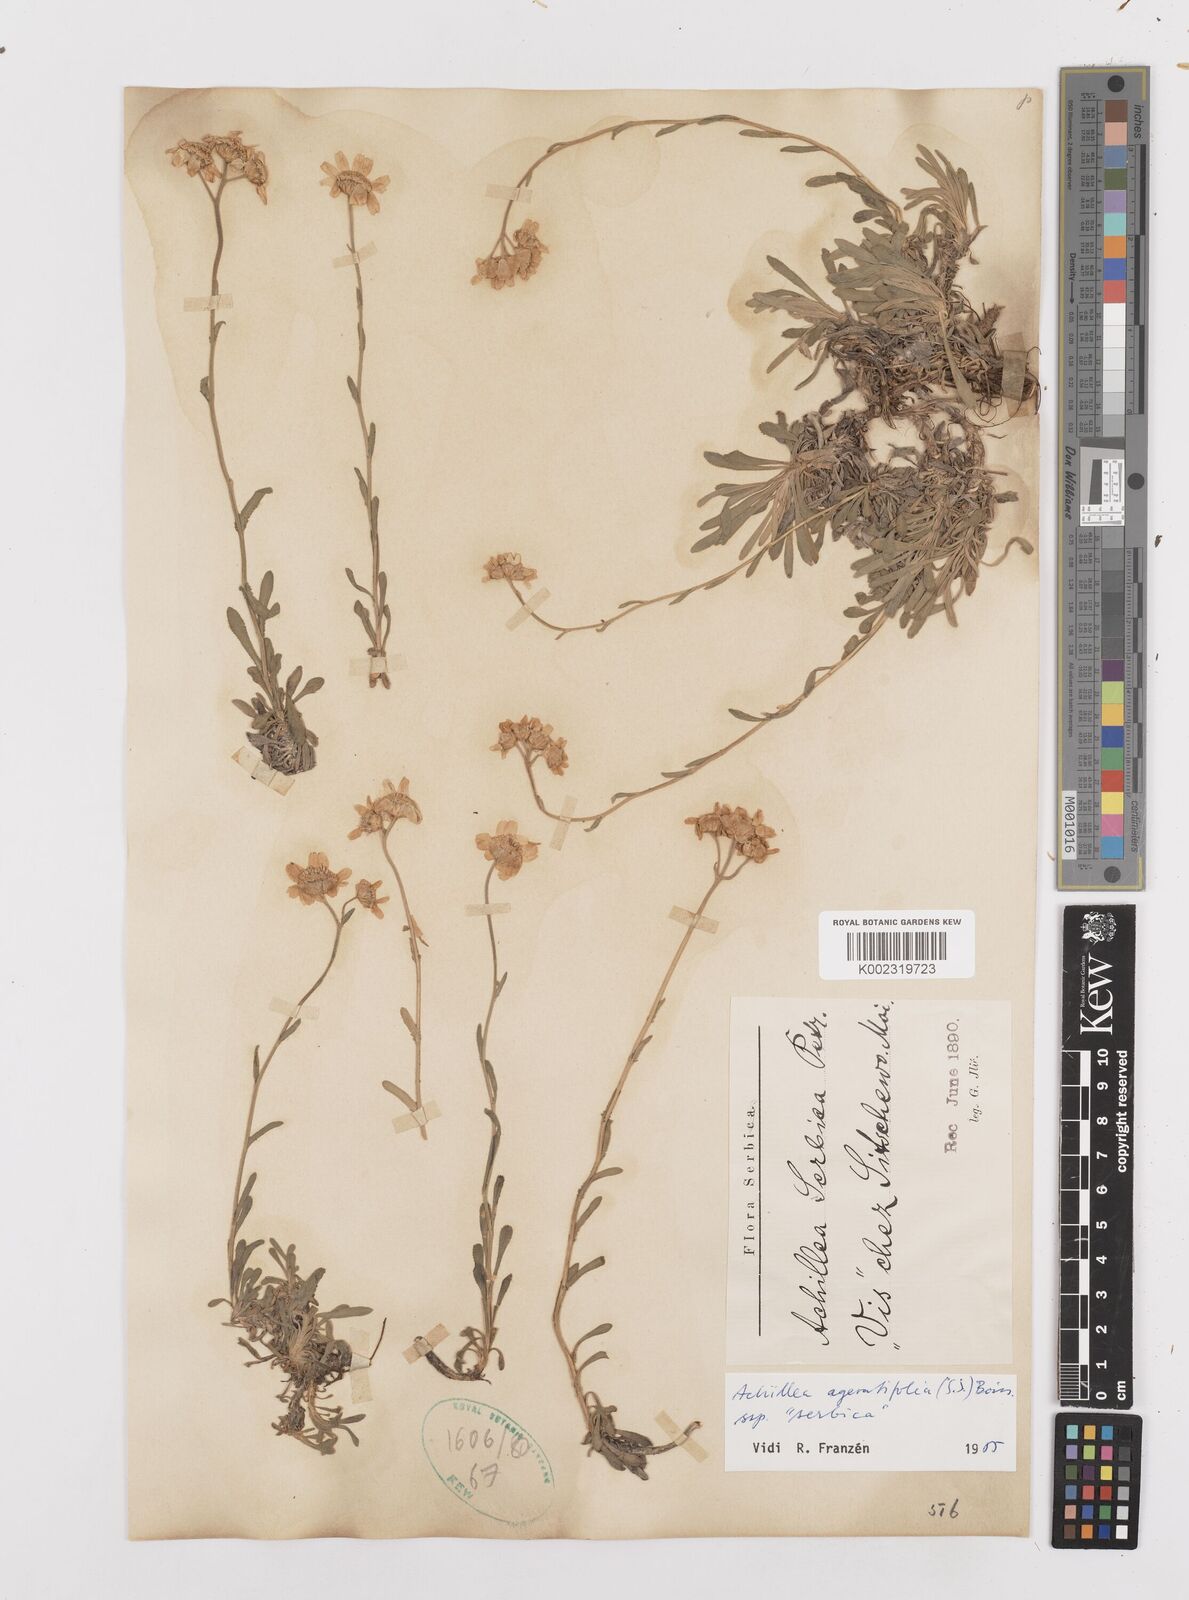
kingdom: Plantae
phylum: Tracheophyta
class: Magnoliopsida
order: Asterales
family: Asteraceae
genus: Achillea
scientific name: Achillea ageratifolia
